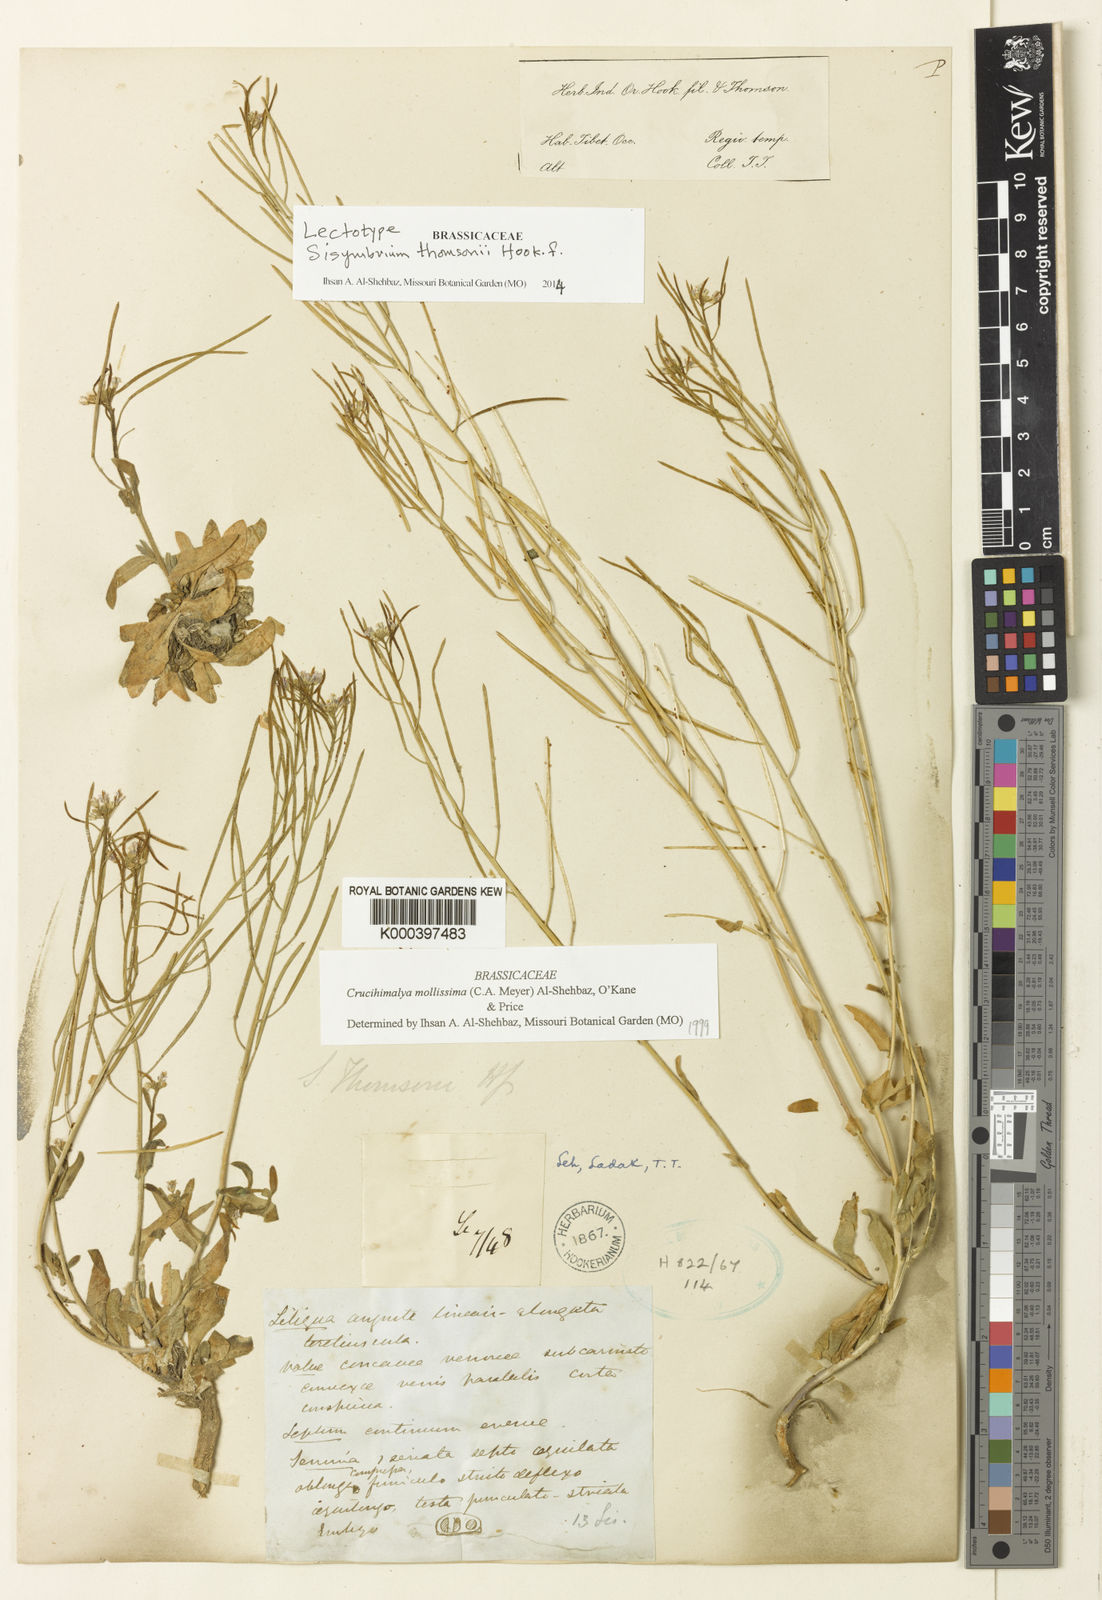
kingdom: Plantae
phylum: Tracheophyta
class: Magnoliopsida
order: Brassicales
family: Brassicaceae
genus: Crucihimalaya
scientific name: Crucihimalaya mollissima
